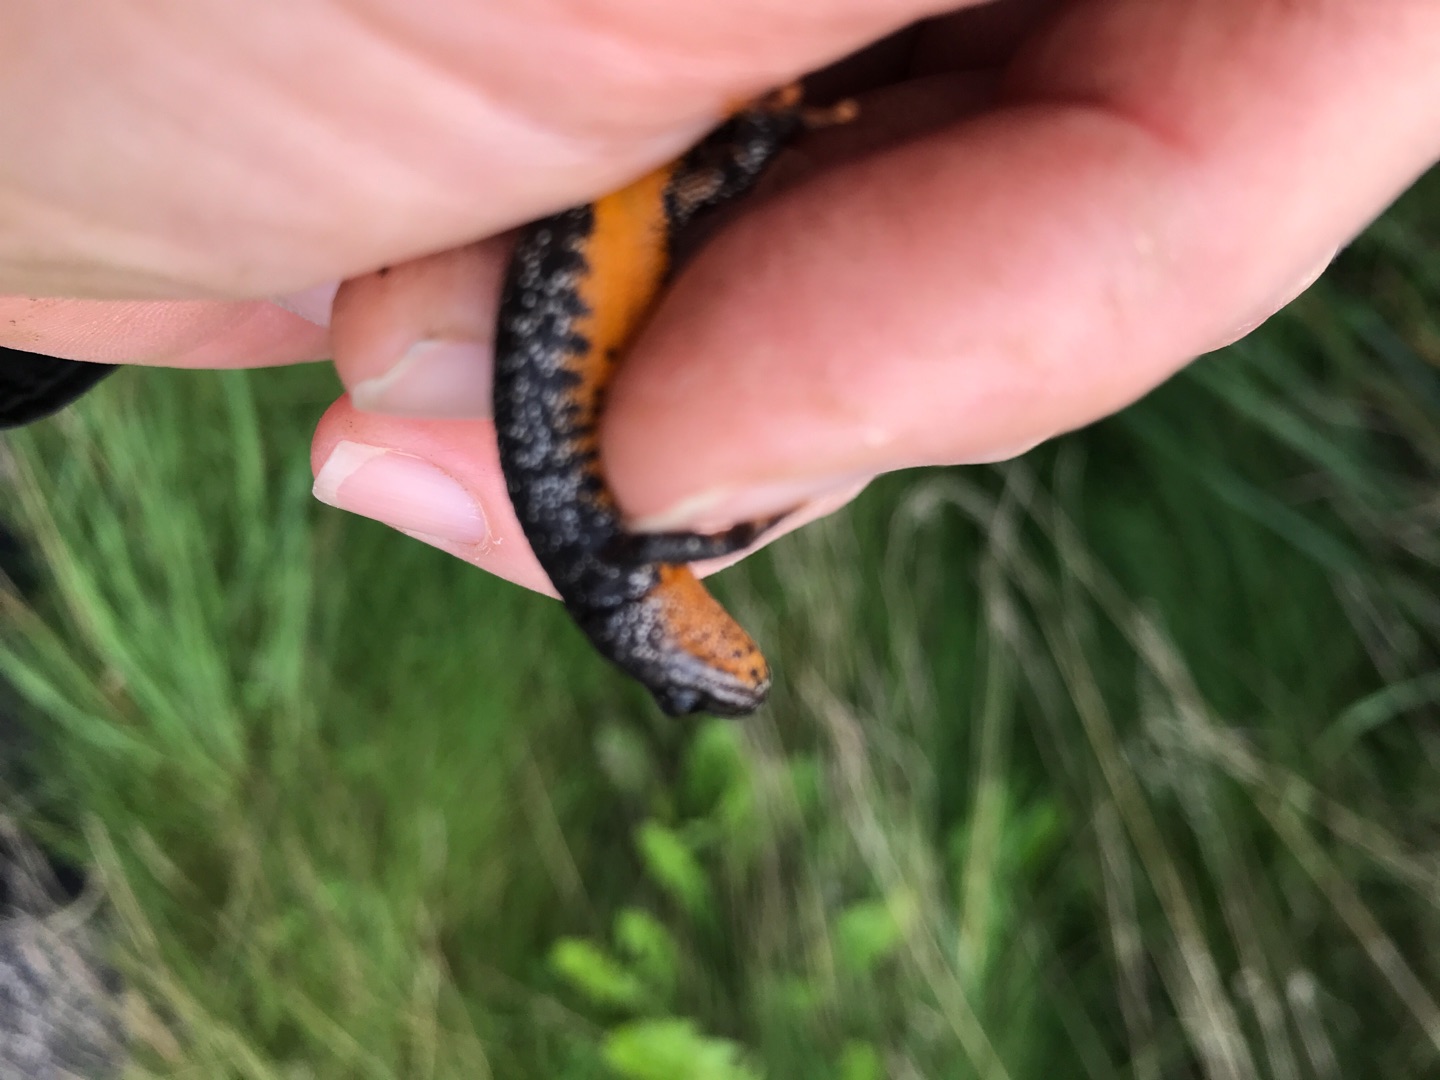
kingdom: Animalia
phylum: Chordata
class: Amphibia
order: Caudata
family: Salamandridae
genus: Triturus
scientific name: Triturus cristatus
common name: Stor vandsalamander
